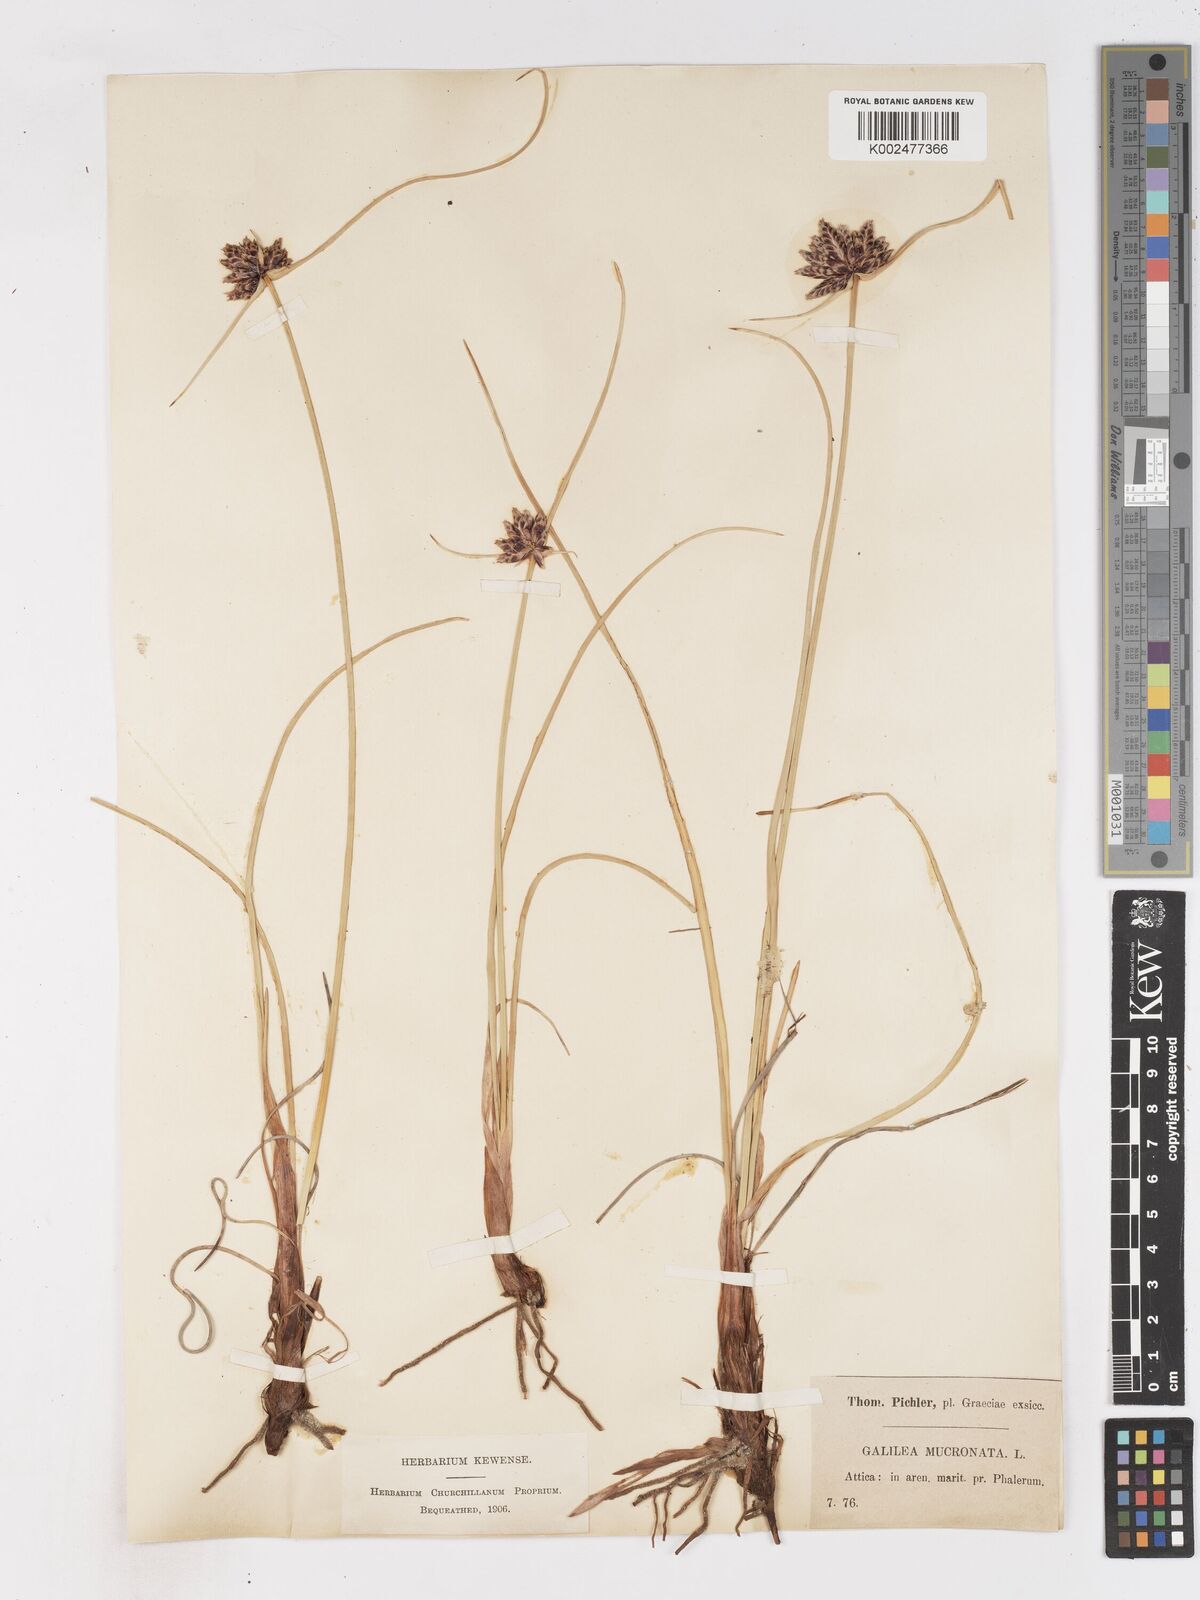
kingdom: Plantae
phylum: Tracheophyta
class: Liliopsida
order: Poales
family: Cyperaceae
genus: Cyperus
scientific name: Cyperus capitatus
